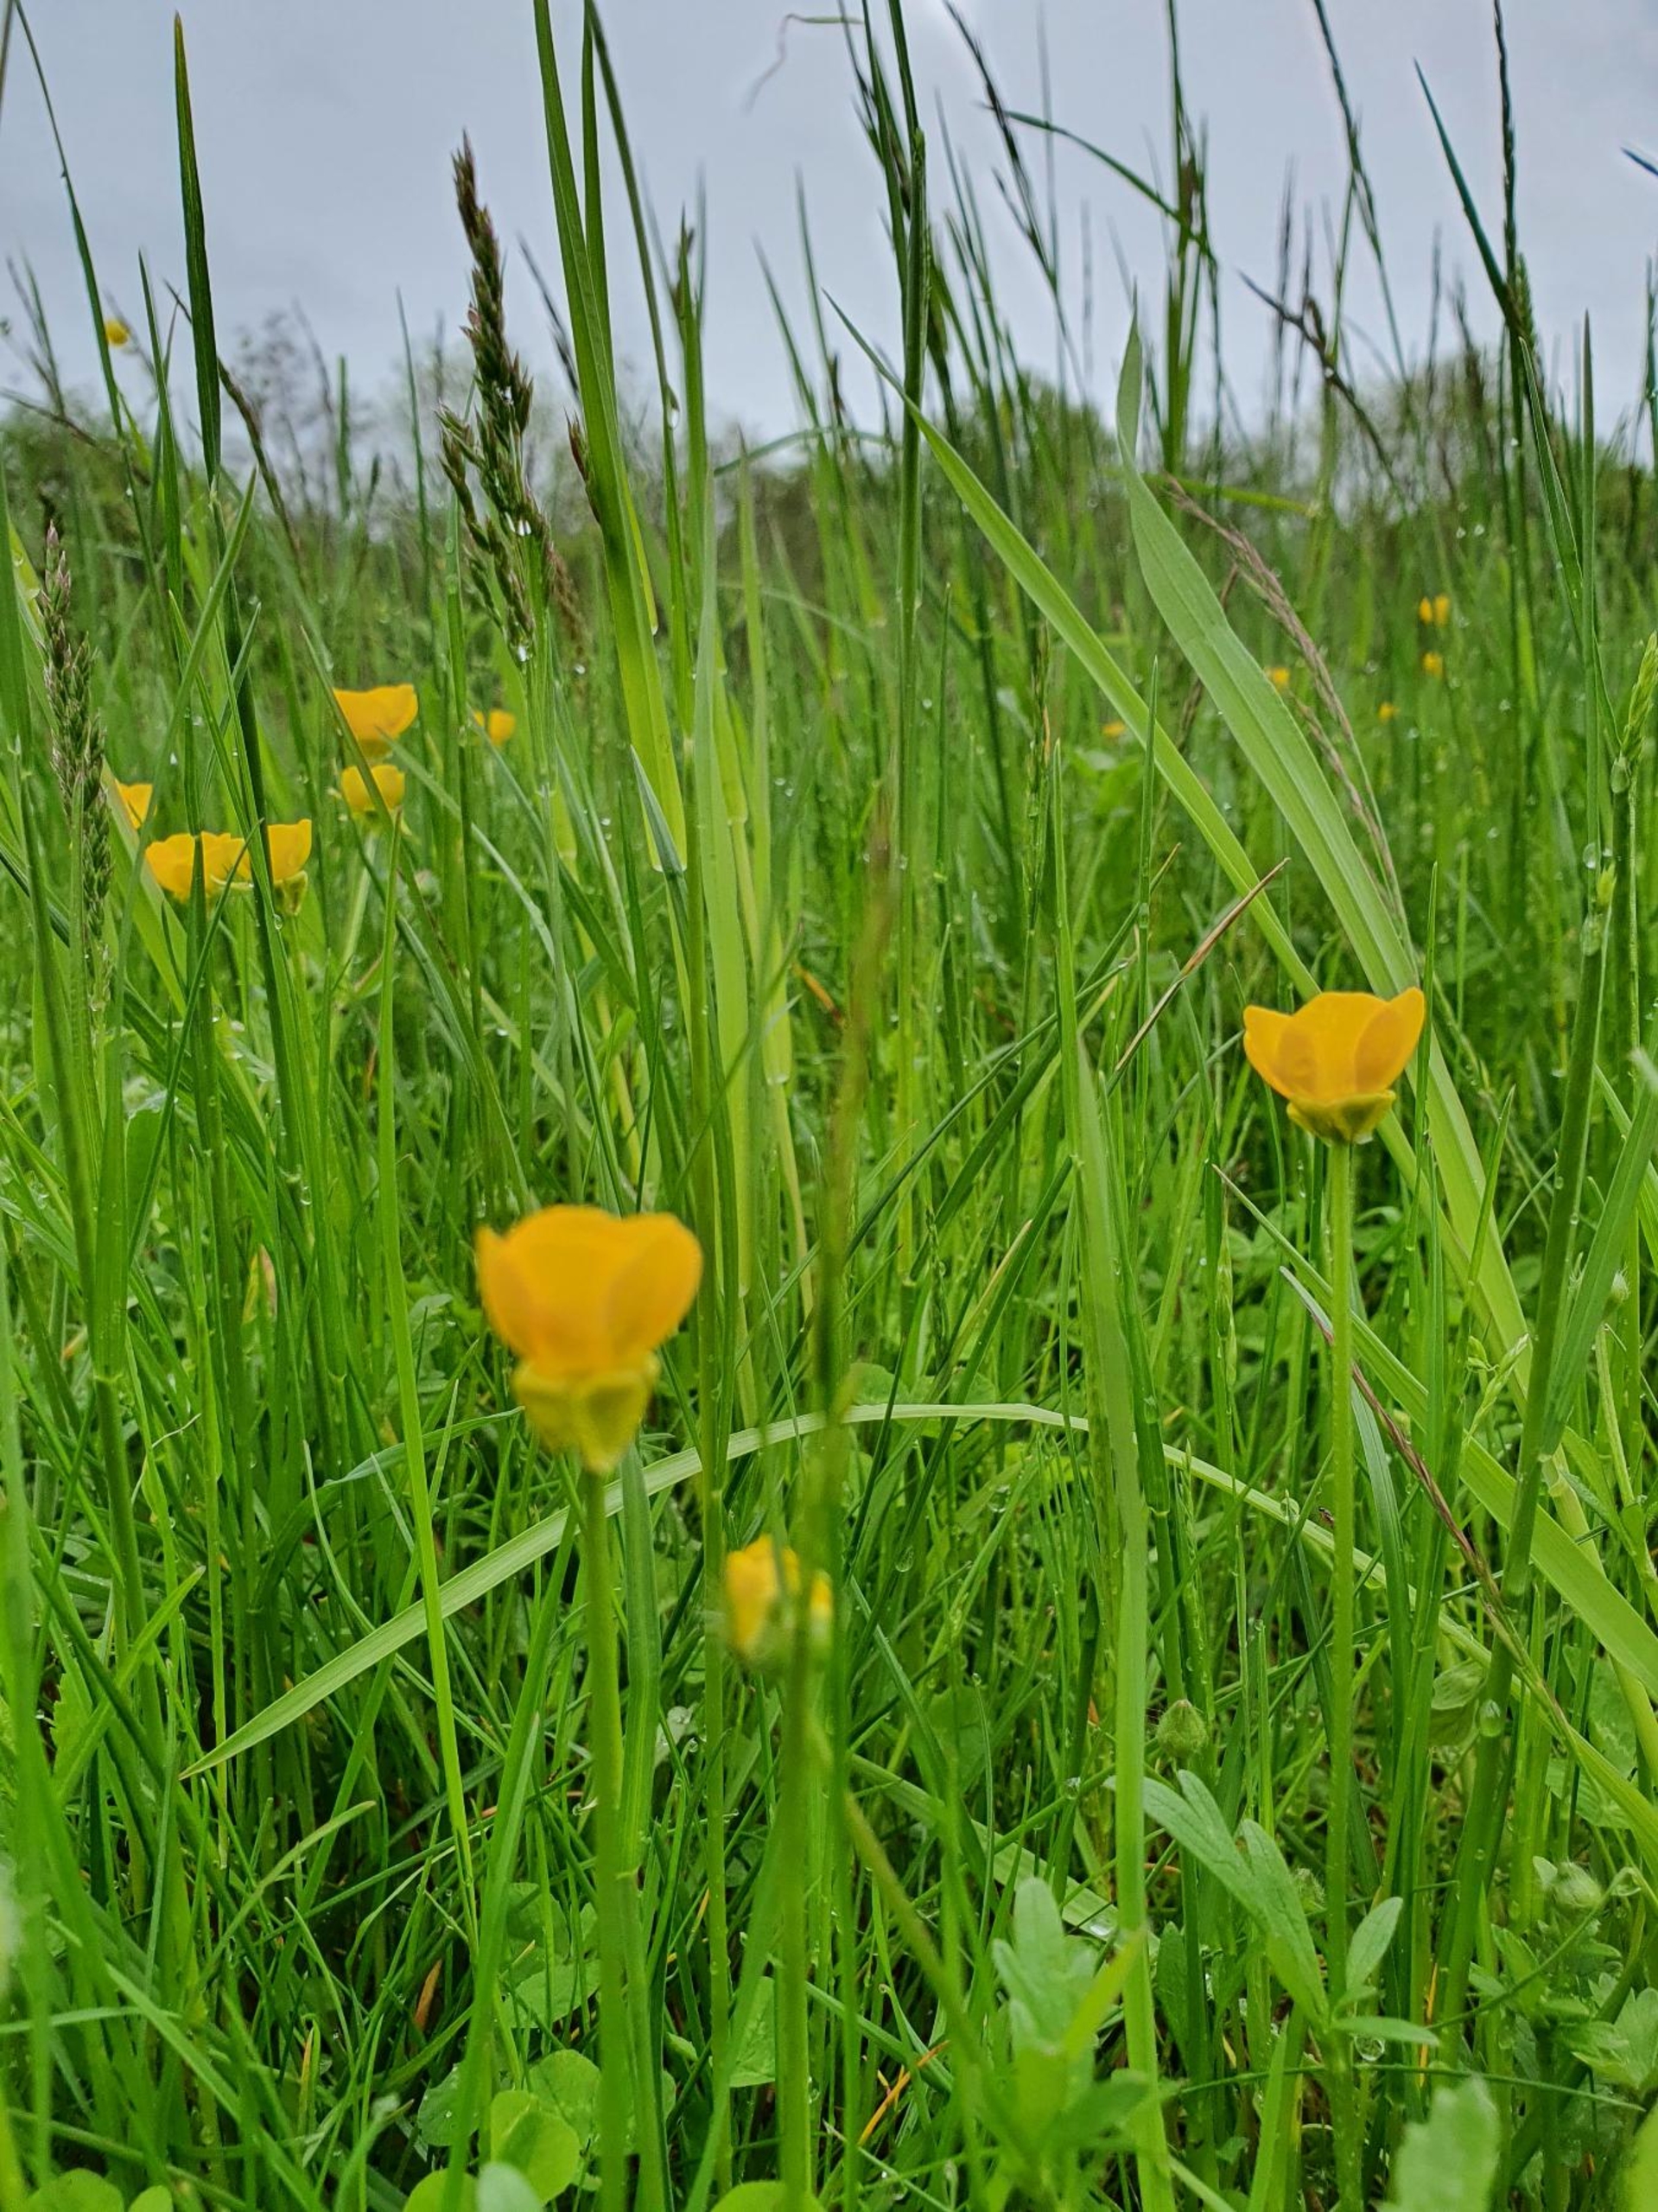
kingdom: Plantae
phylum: Tracheophyta
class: Magnoliopsida
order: Ranunculales
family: Ranunculaceae
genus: Ranunculus
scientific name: Ranunculus bulbosus
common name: Knold-ranunkel
